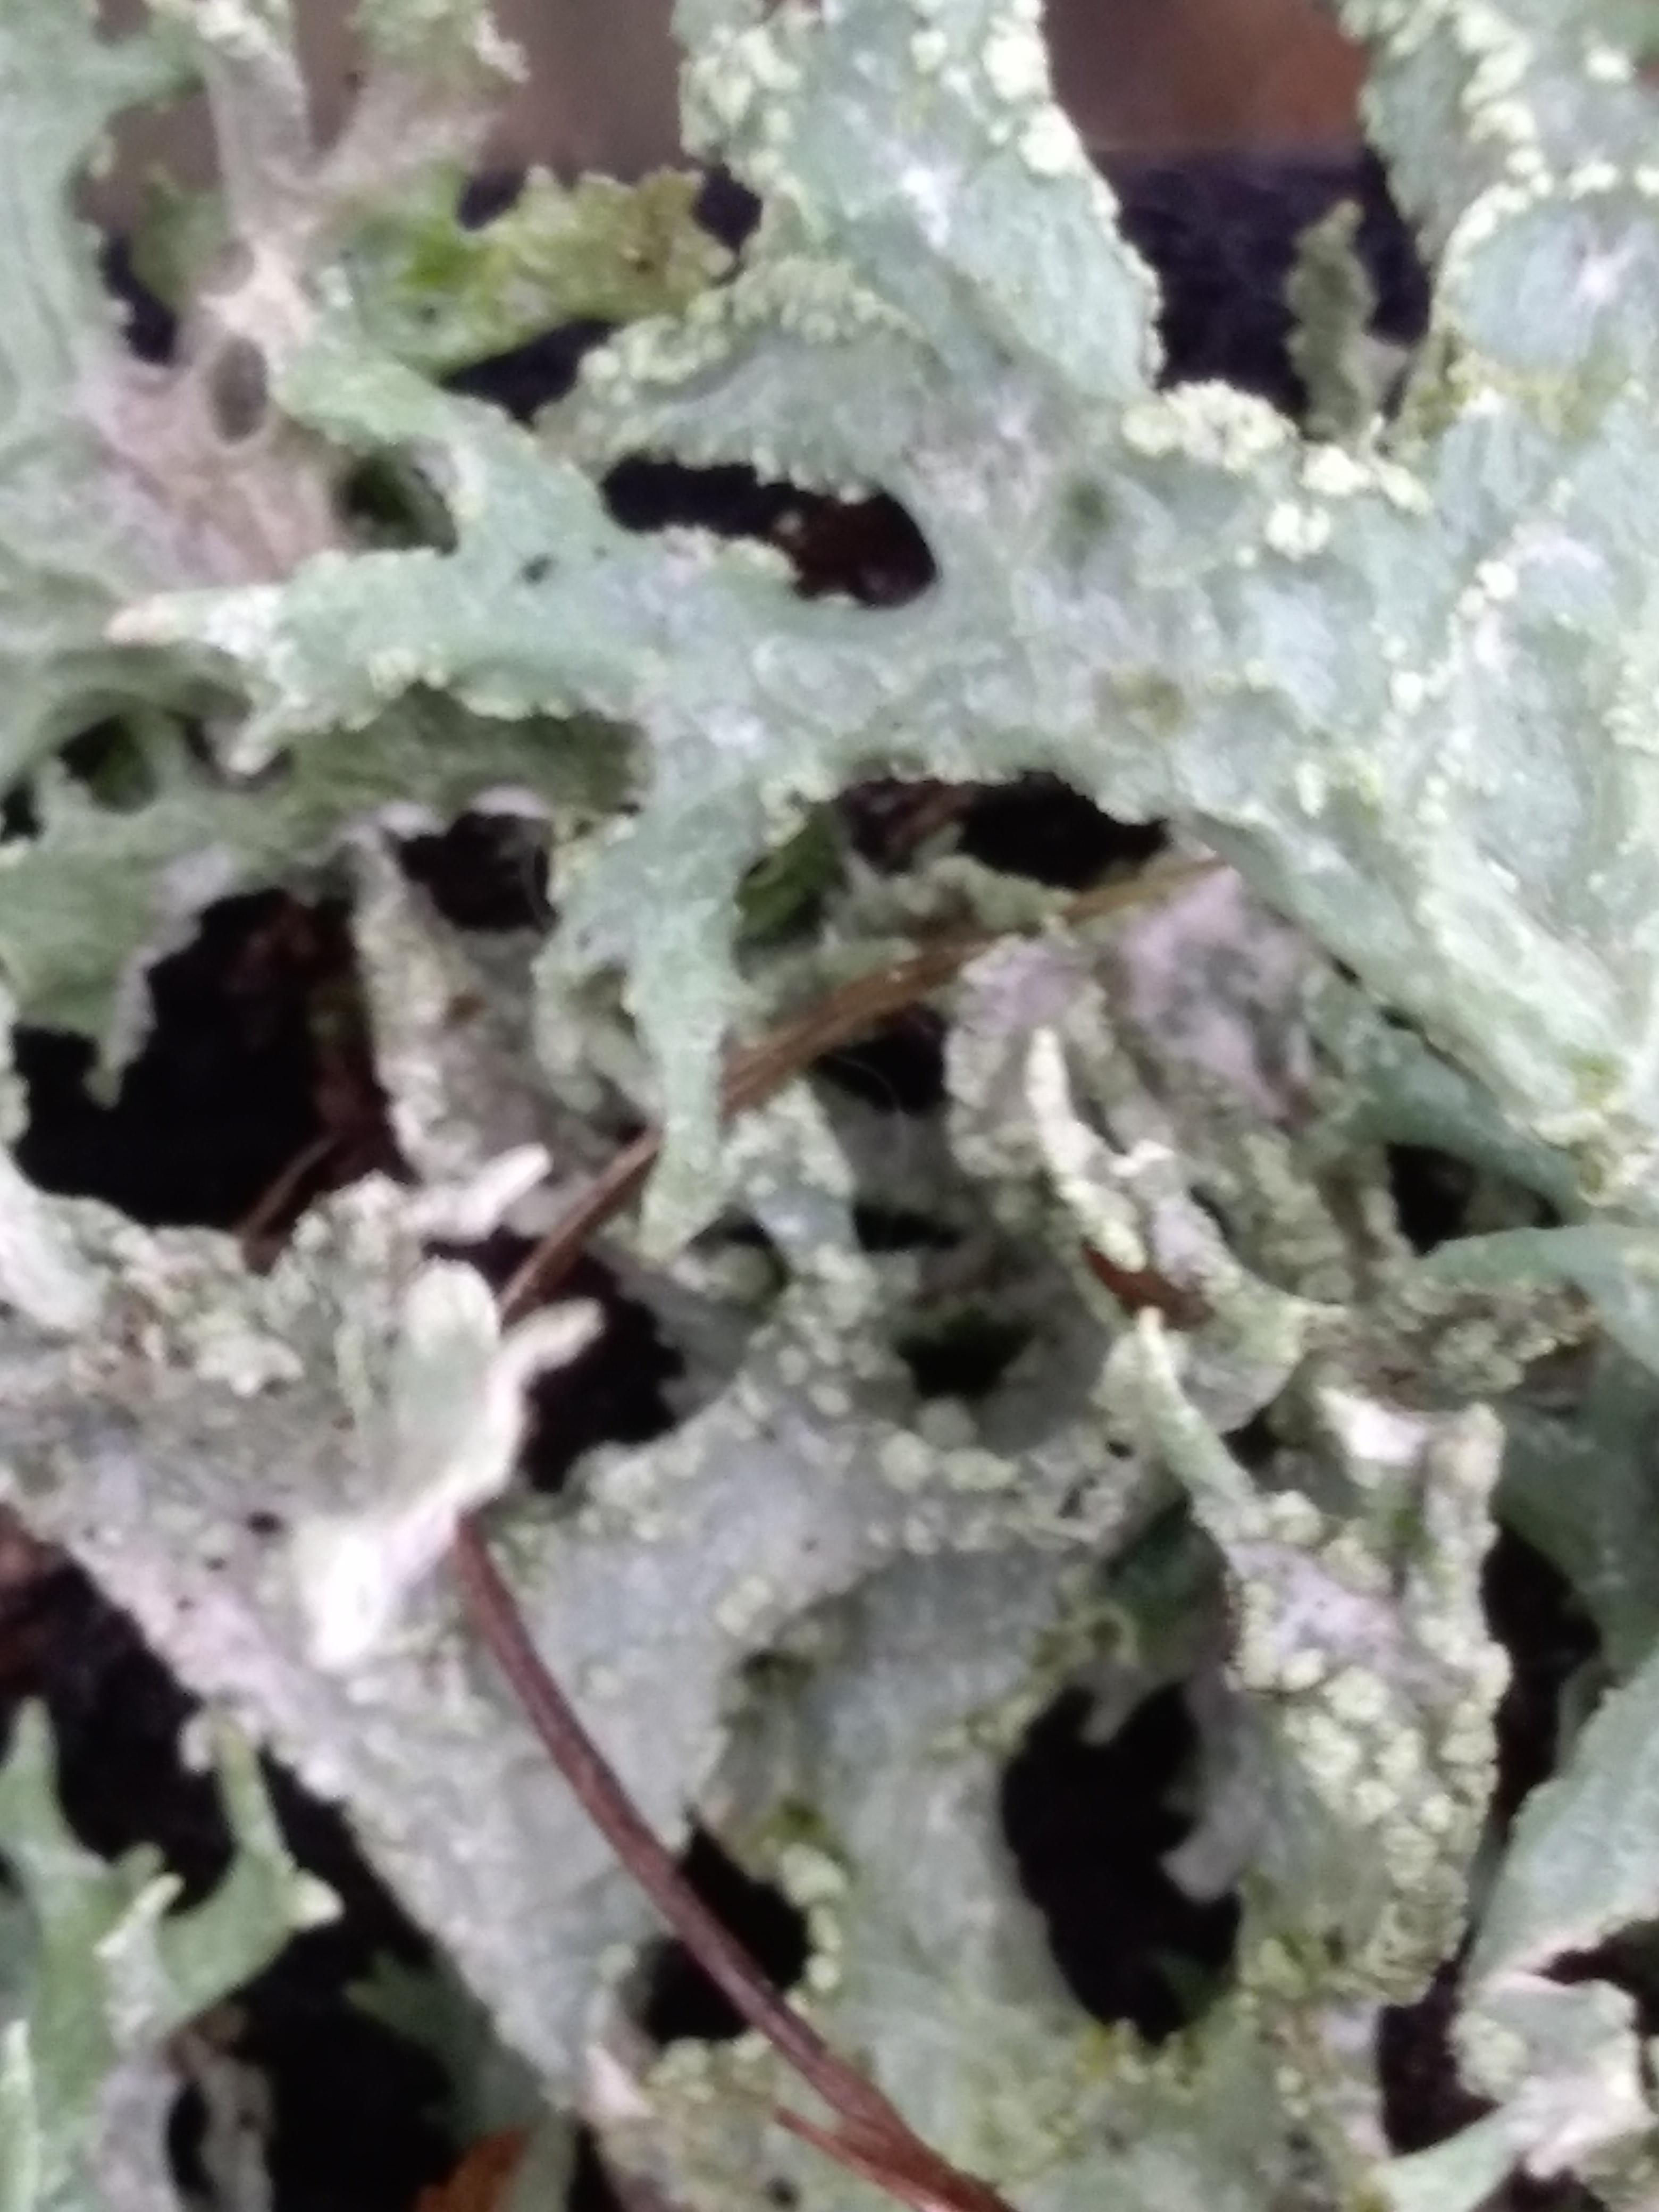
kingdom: Fungi
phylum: Ascomycota
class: Lecanoromycetes
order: Lecanorales
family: Parmeliaceae
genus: Evernia
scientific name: Evernia prunastri
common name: almindelig slåenlav
